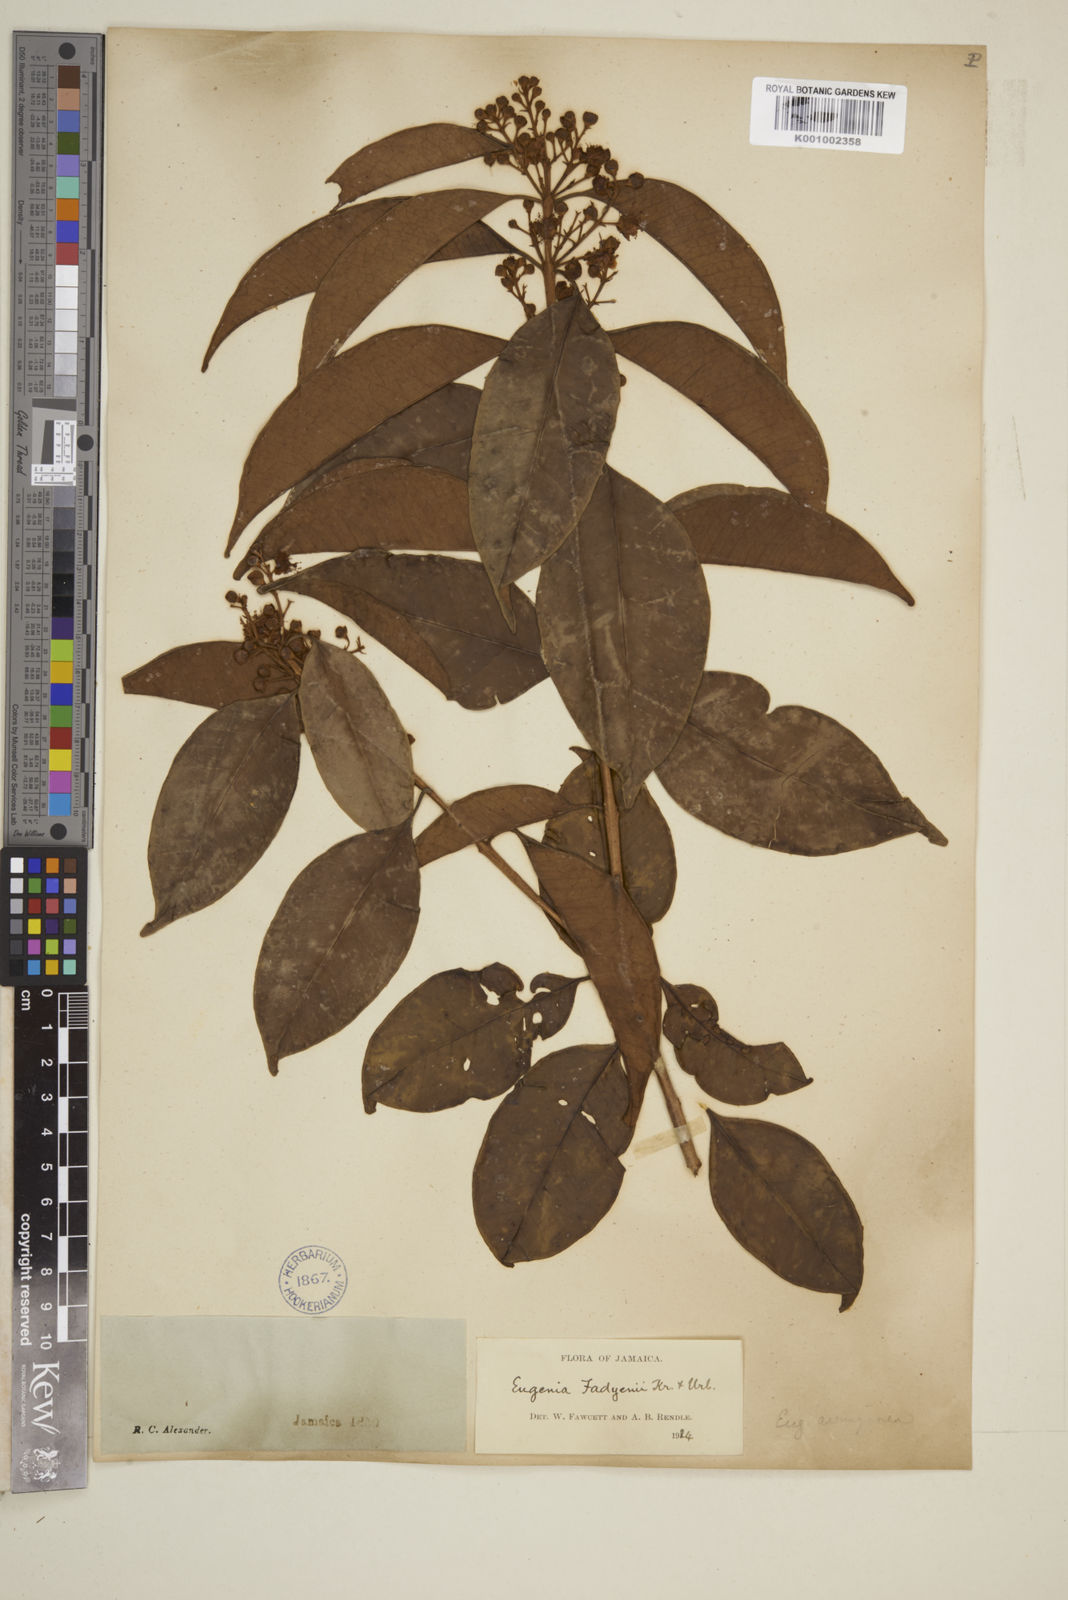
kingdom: Plantae
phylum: Tracheophyta
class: Magnoliopsida
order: Myrtales
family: Myrtaceae
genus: Eugenia
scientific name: Eugenia aeruginea
